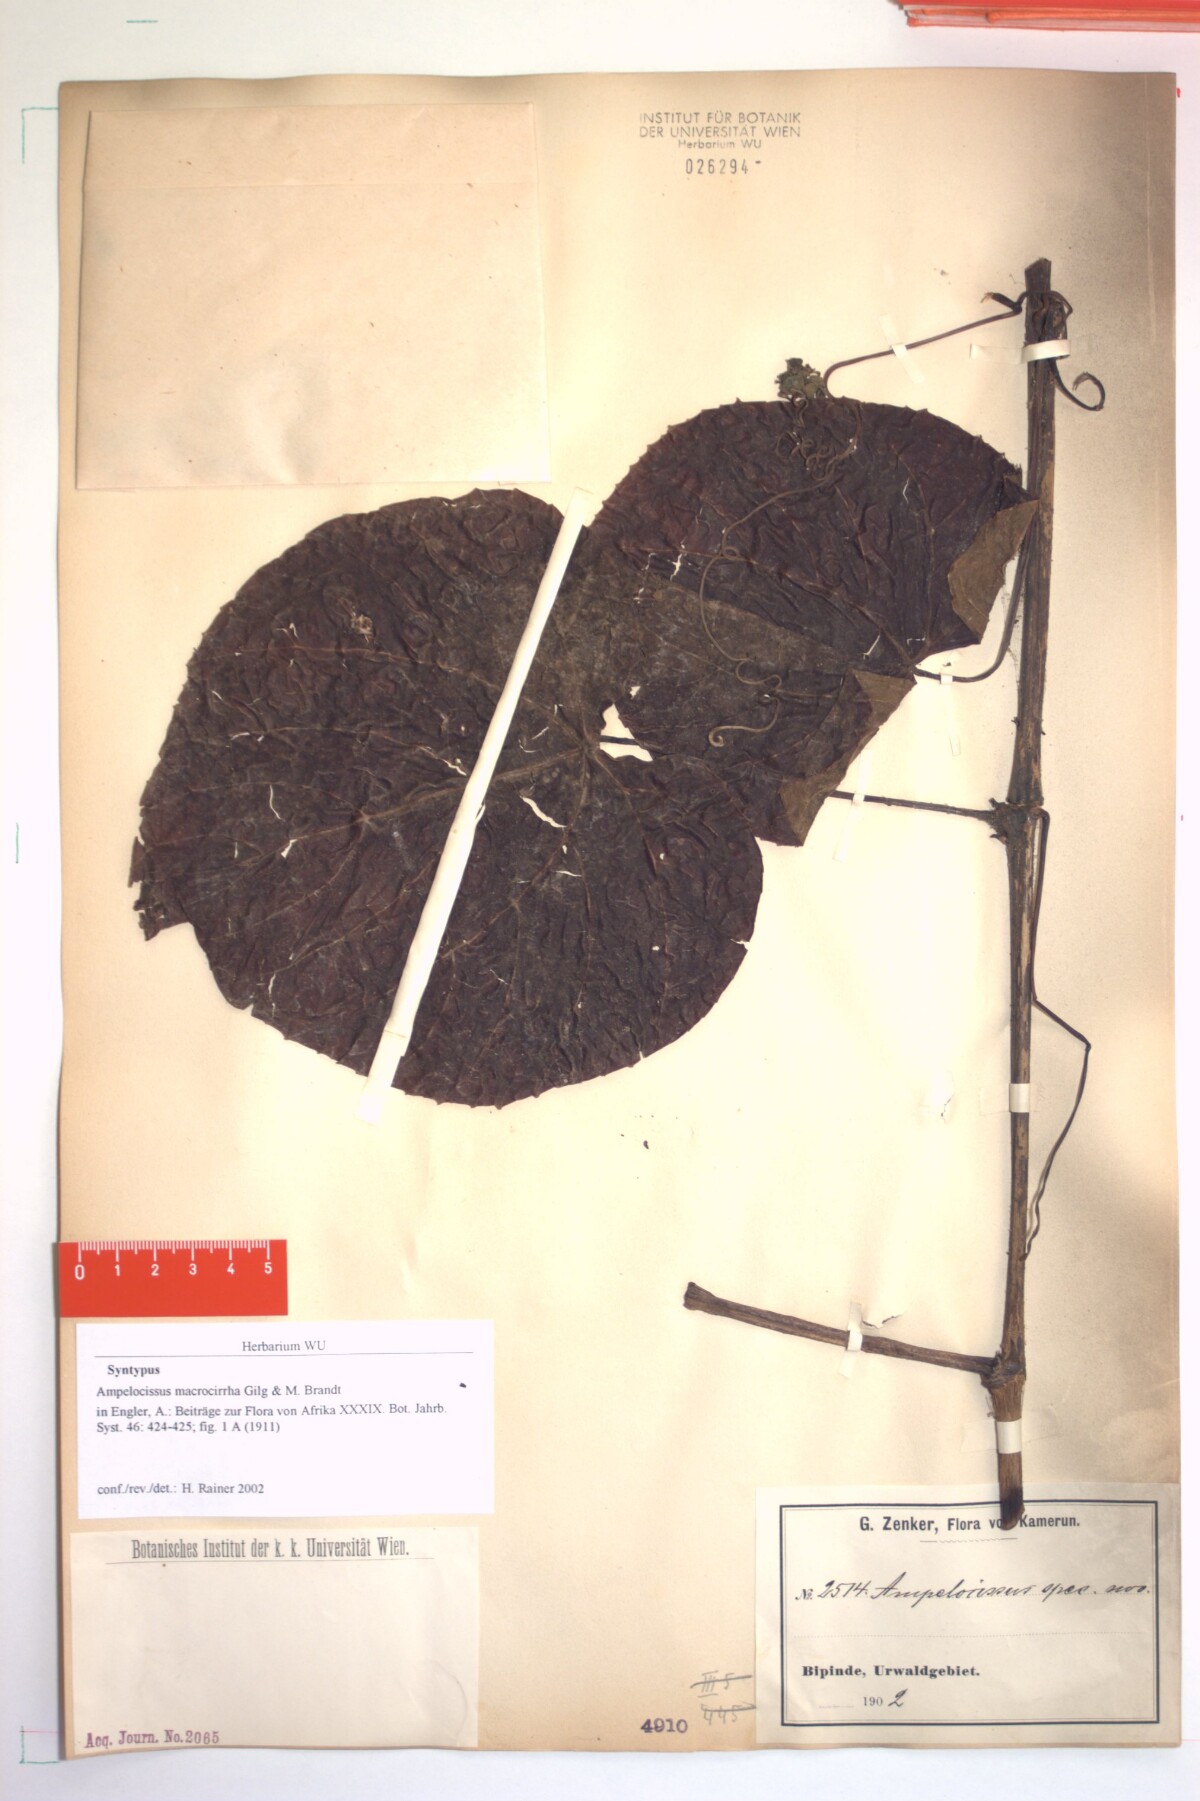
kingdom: Plantae
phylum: Tracheophyta
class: Magnoliopsida
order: Vitales
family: Vitaceae
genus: Ampelocissus
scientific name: Ampelocissus macrocirrha
